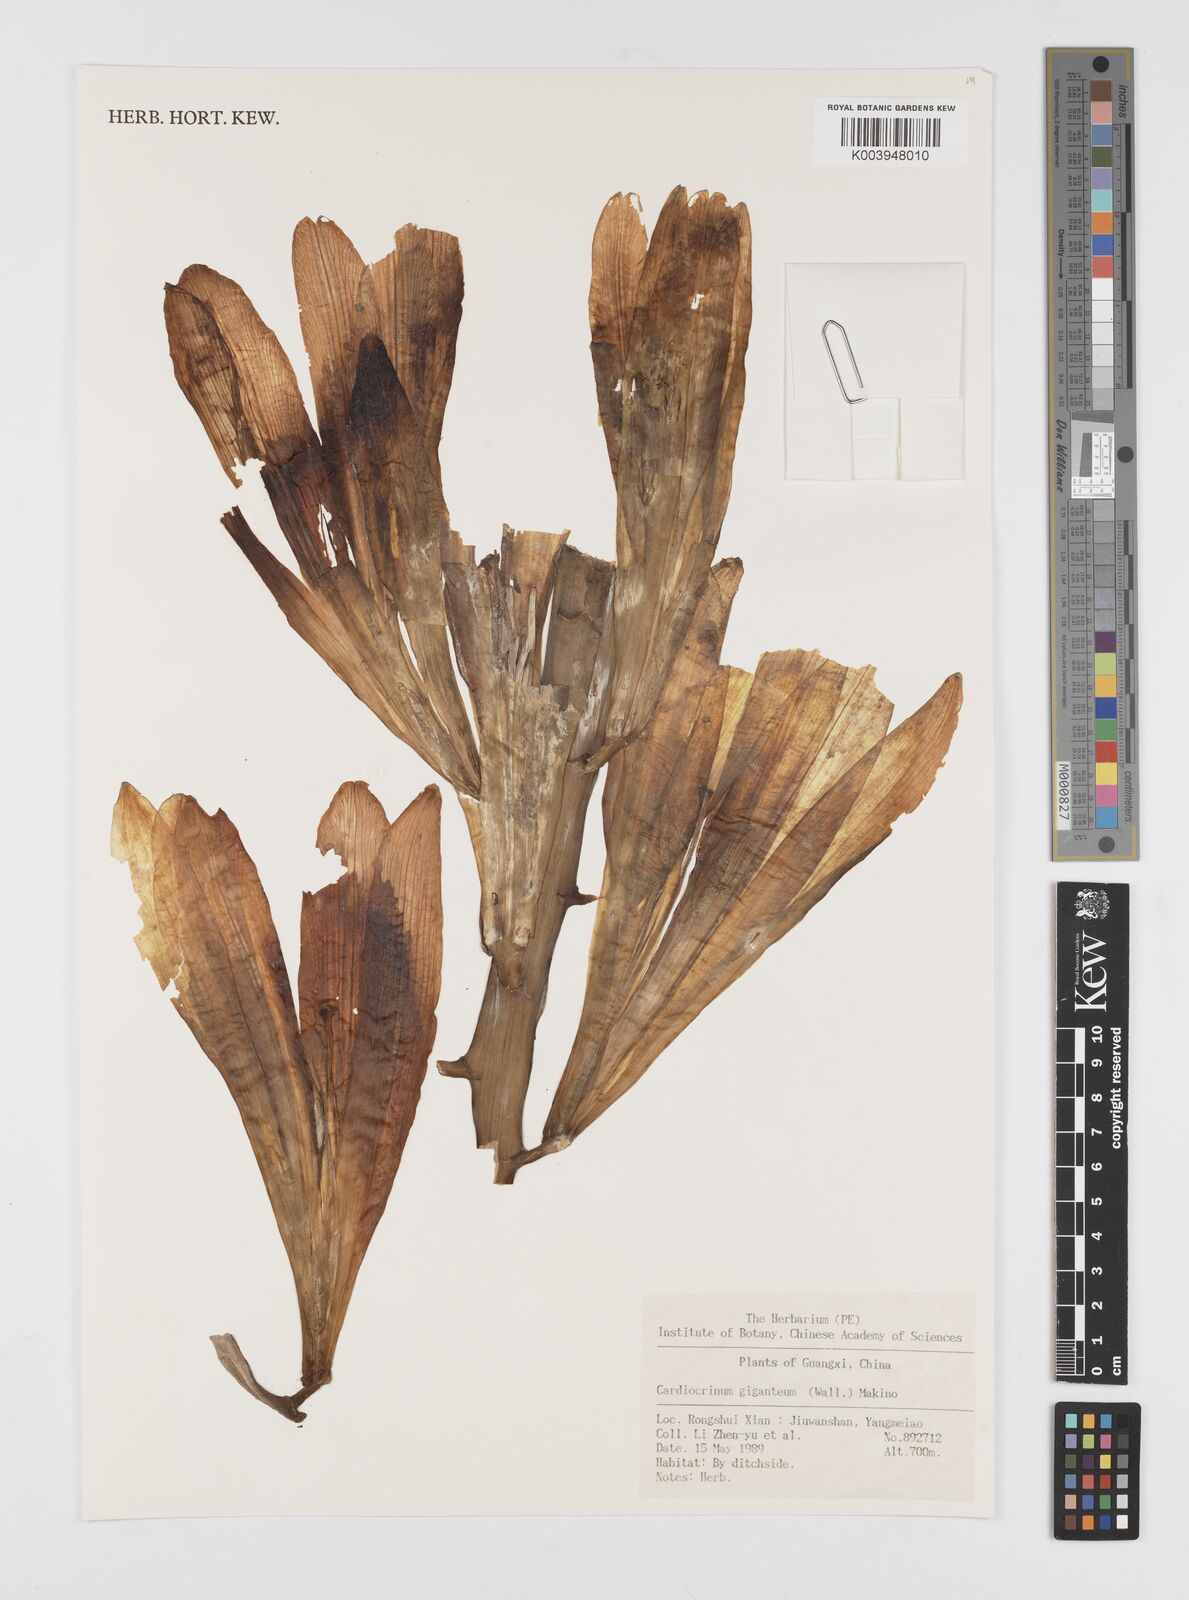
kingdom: Plantae
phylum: Tracheophyta
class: Liliopsida
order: Liliales
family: Liliaceae
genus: Cardiocrinum
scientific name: Cardiocrinum giganteum
